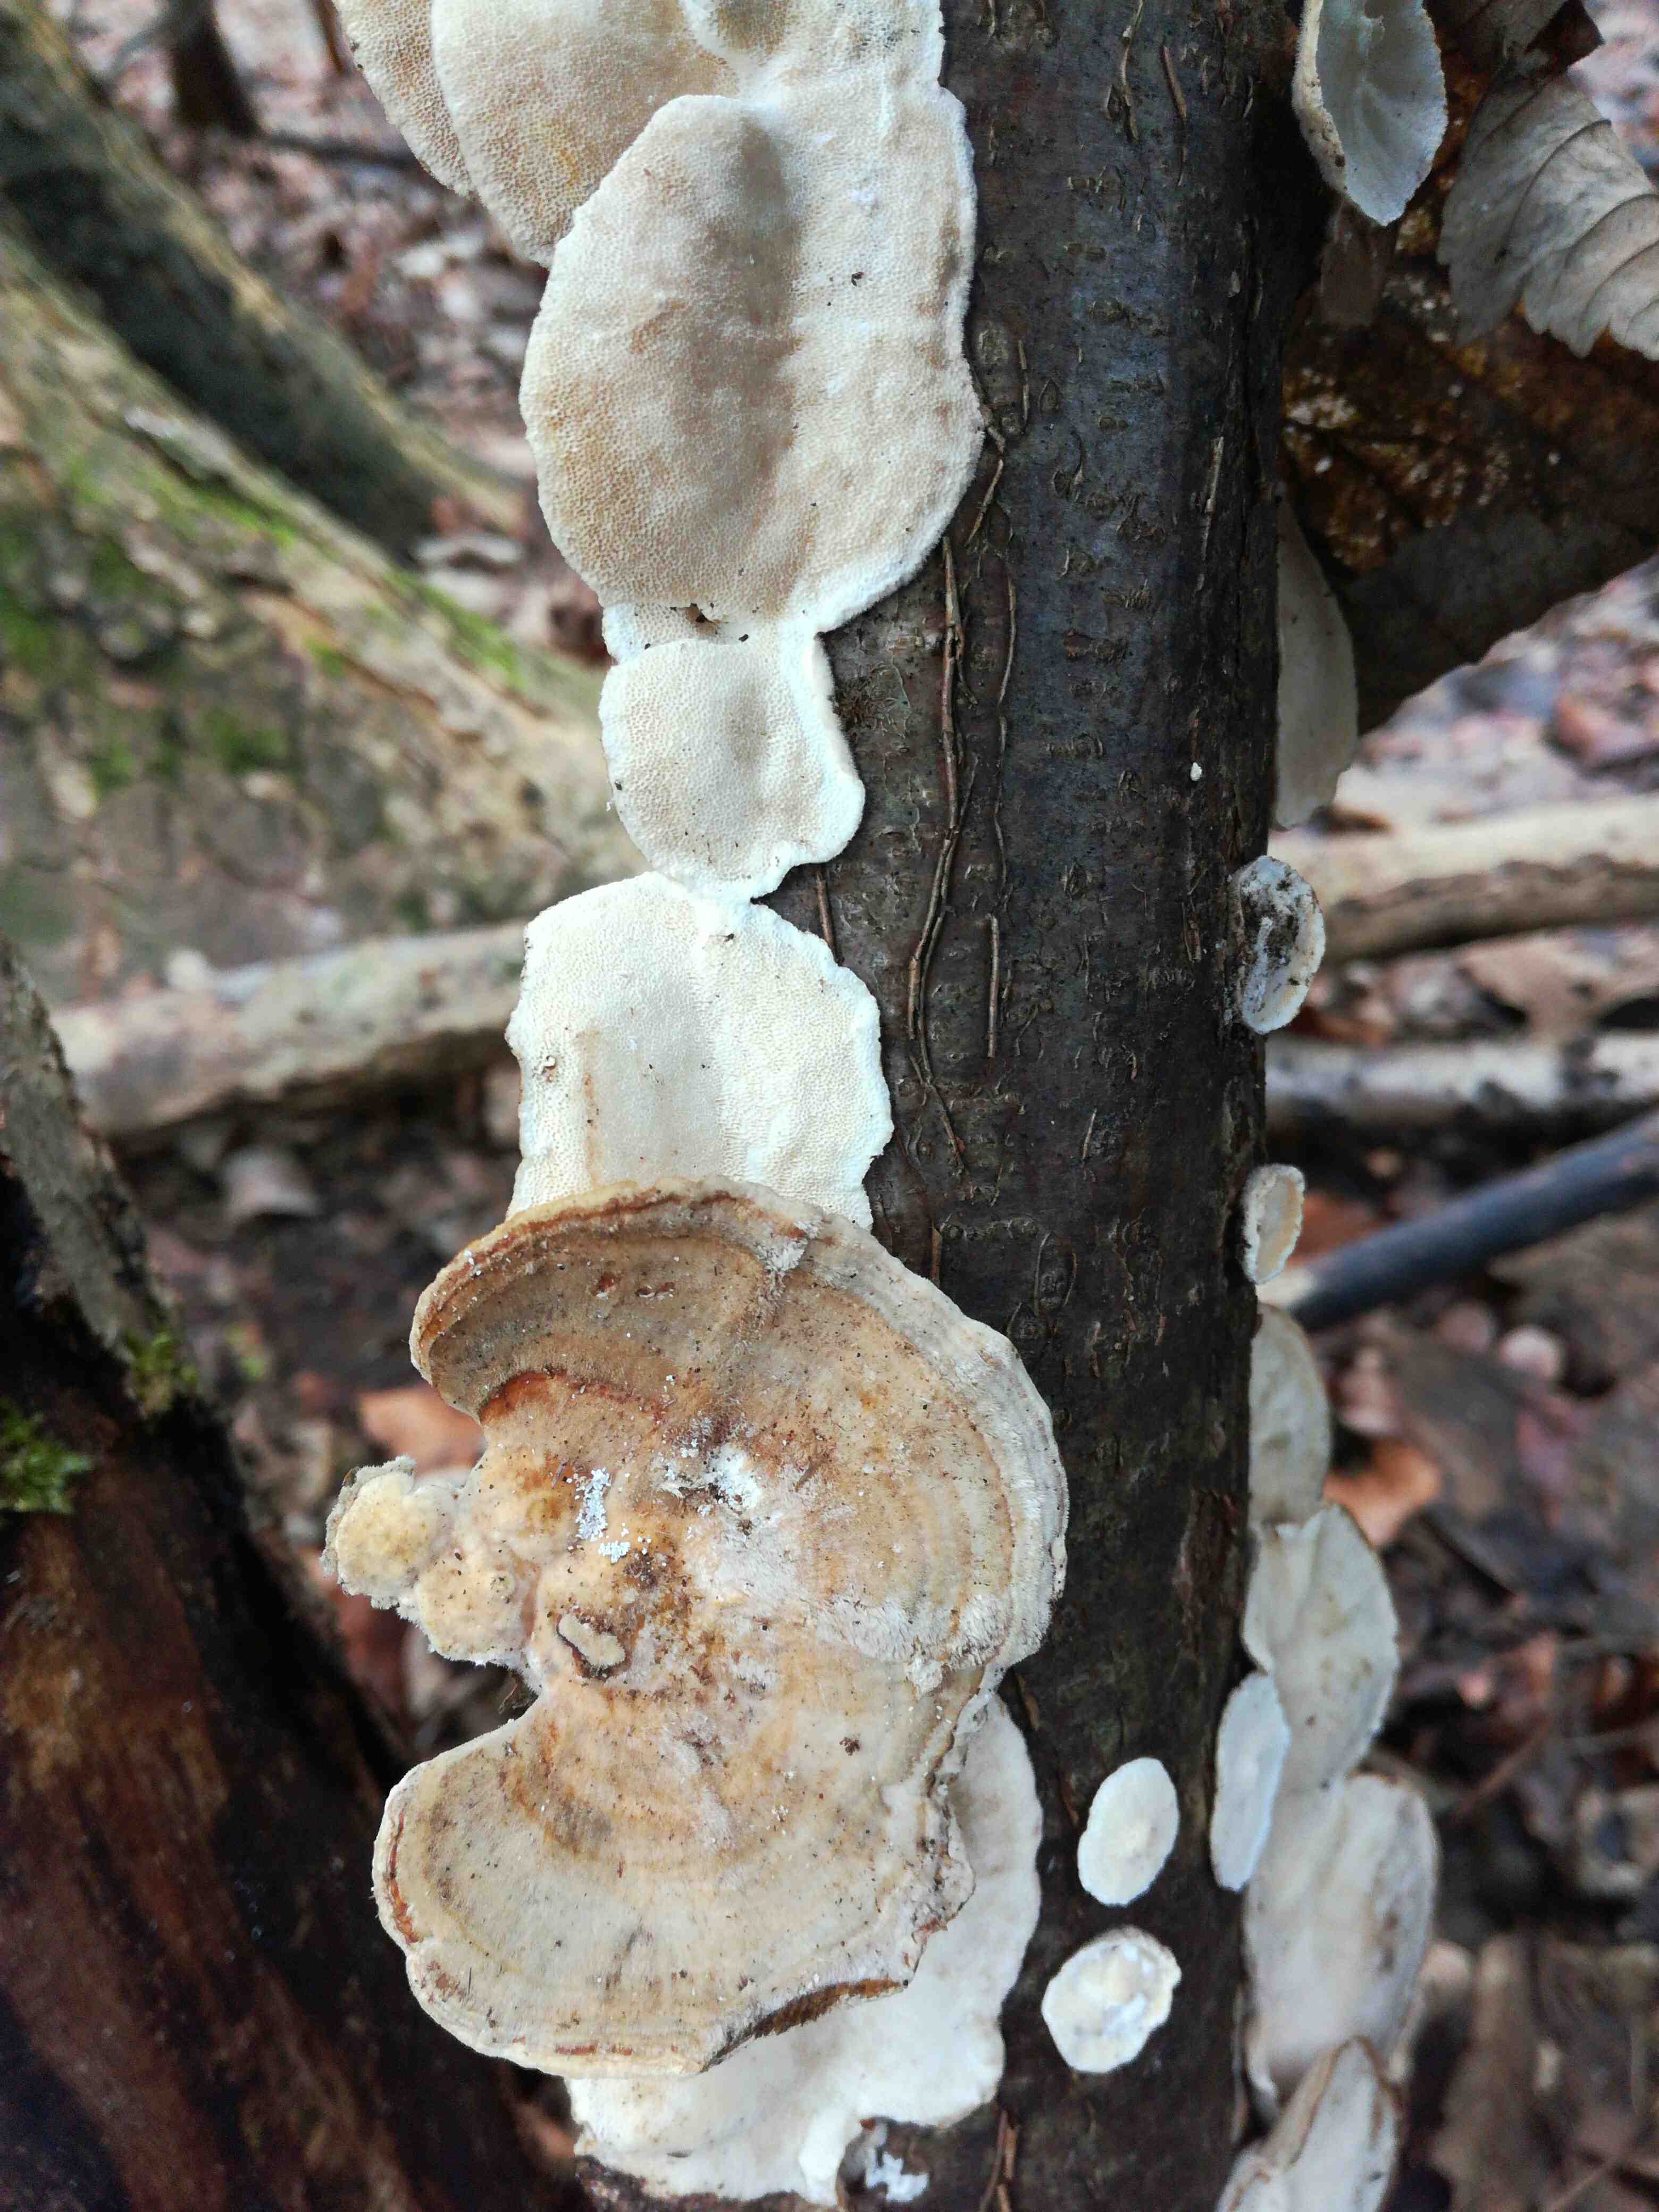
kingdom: Fungi
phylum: Basidiomycota
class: Agaricomycetes
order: Polyporales
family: Polyporaceae
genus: Trametes
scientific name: Trametes
